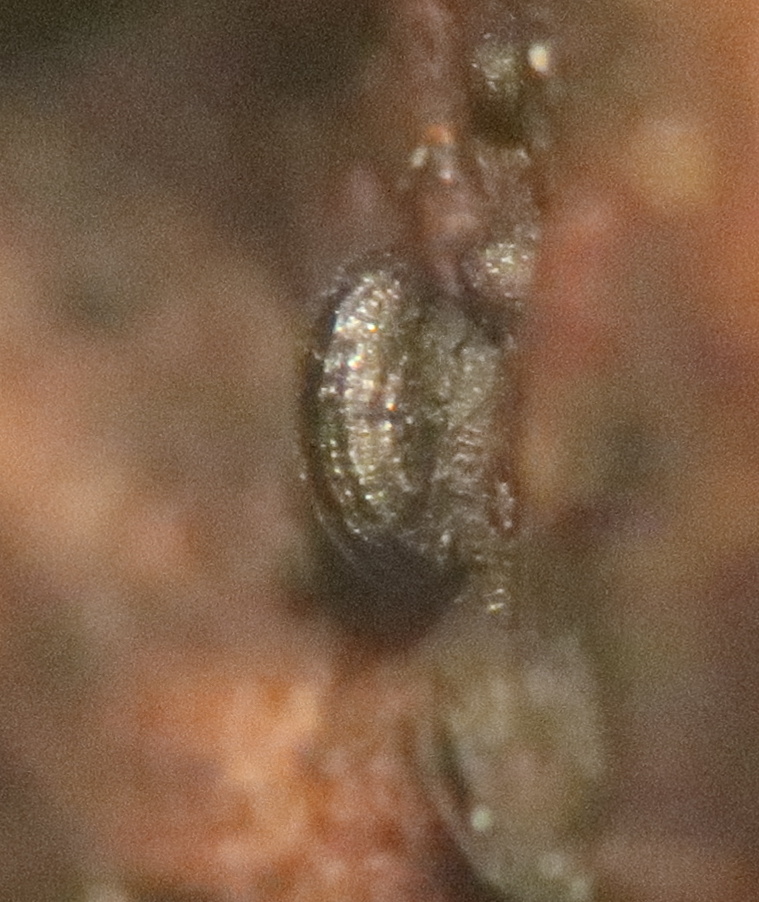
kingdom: Fungi
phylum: Ascomycota
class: Dothideomycetes
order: Mytilinidiales
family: Mytilinidiaceae
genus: Mytilinidion
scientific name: Mytilinidion rhenanum
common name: almindelig kulmusling
